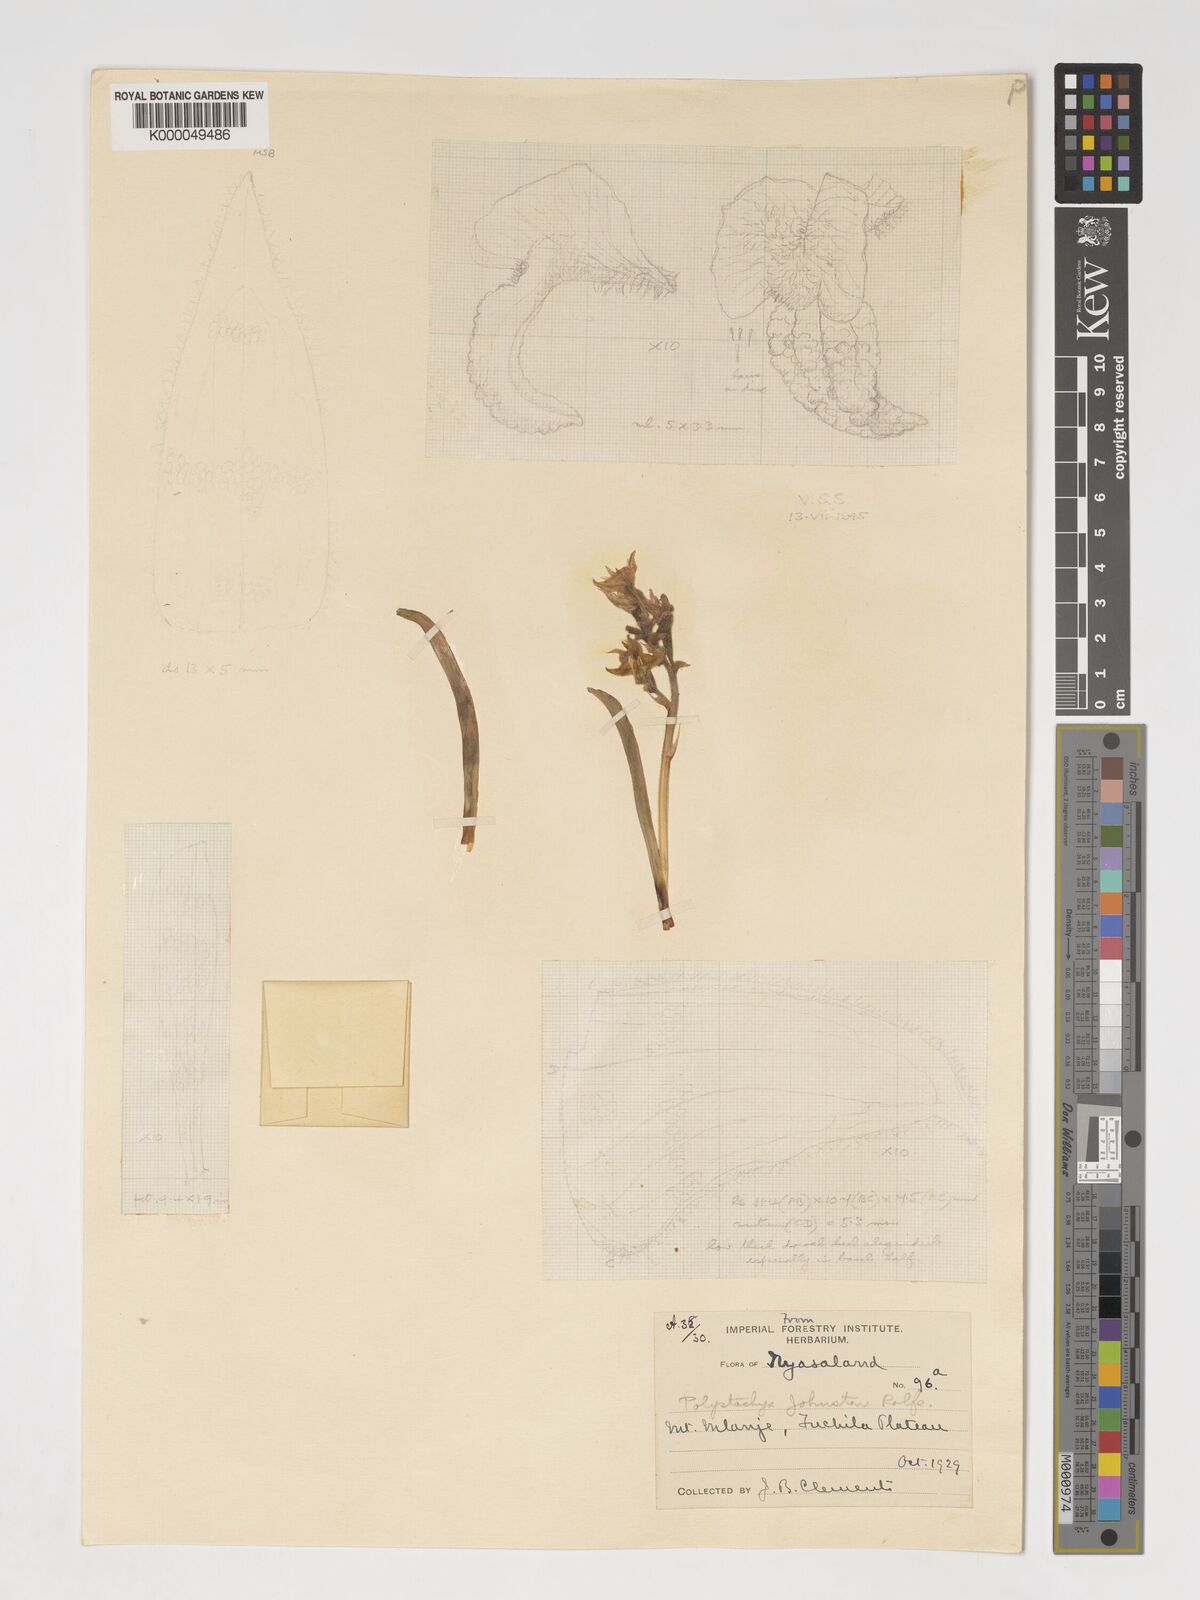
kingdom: Plantae
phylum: Tracheophyta
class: Liliopsida
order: Asparagales
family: Orchidaceae
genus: Polystachya
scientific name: Polystachya johnstonii
